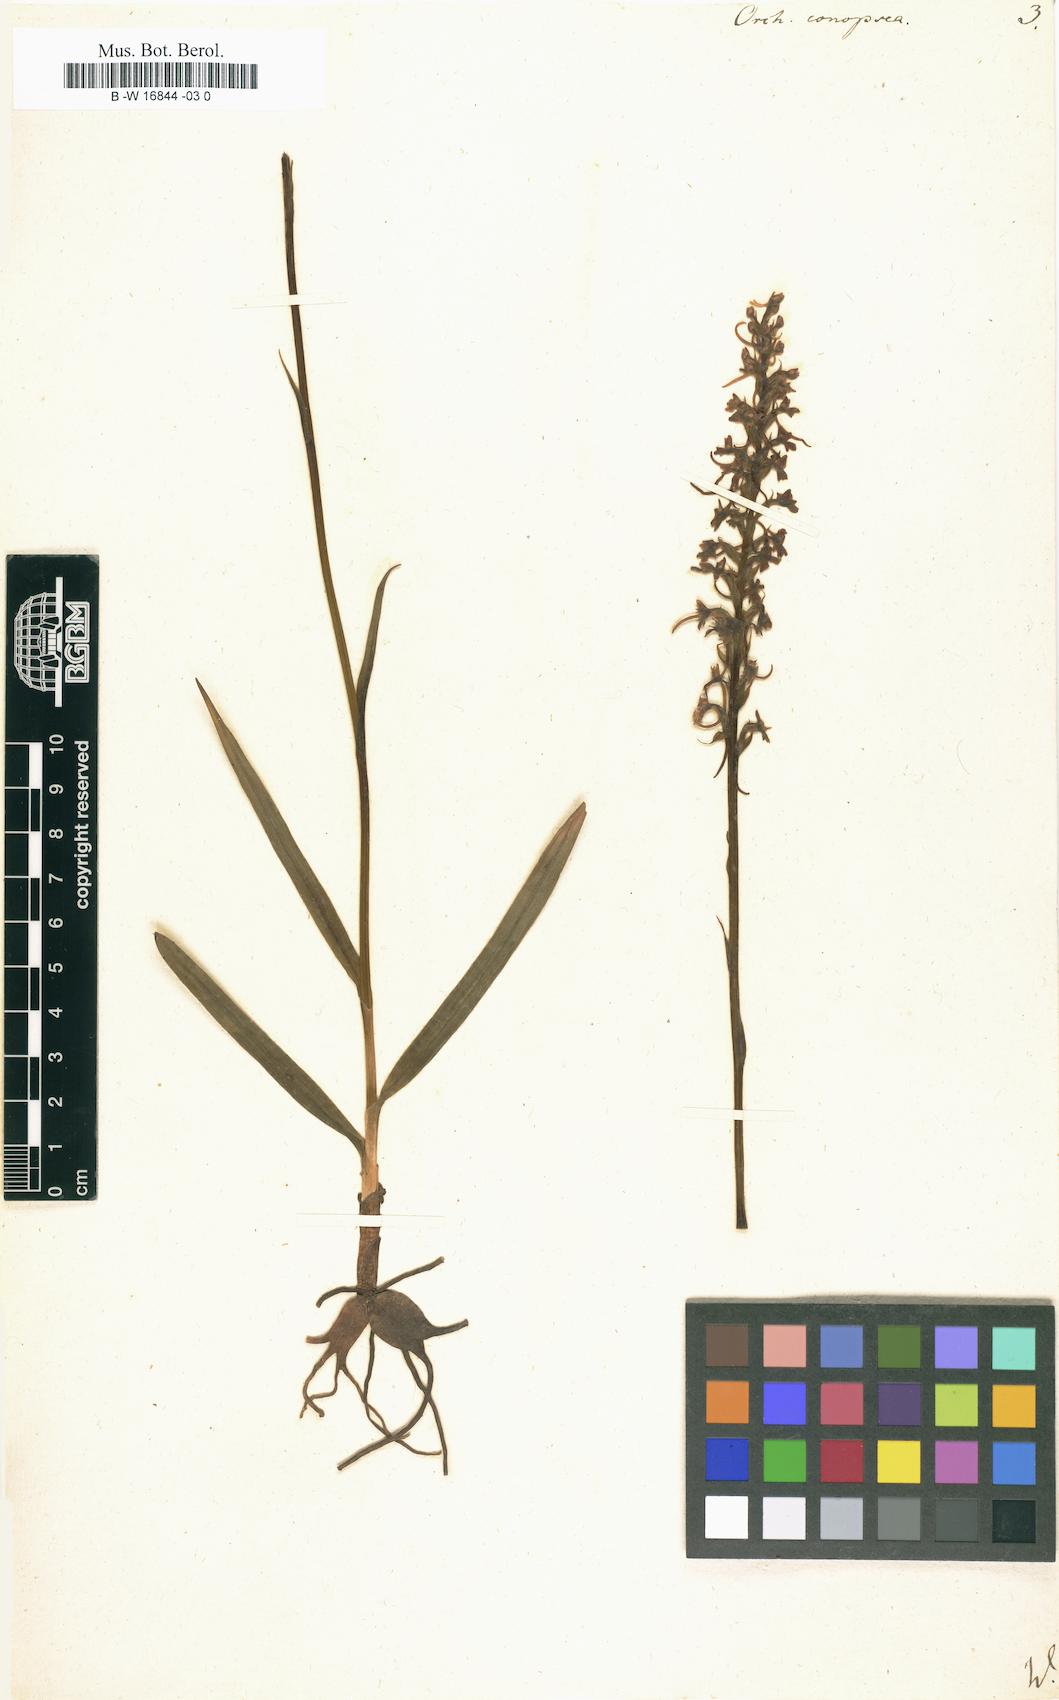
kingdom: Plantae
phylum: Tracheophyta
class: Liliopsida
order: Asparagales
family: Orchidaceae
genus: Gymnadenia
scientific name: Gymnadenia conopsea
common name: Fragrant orchid
